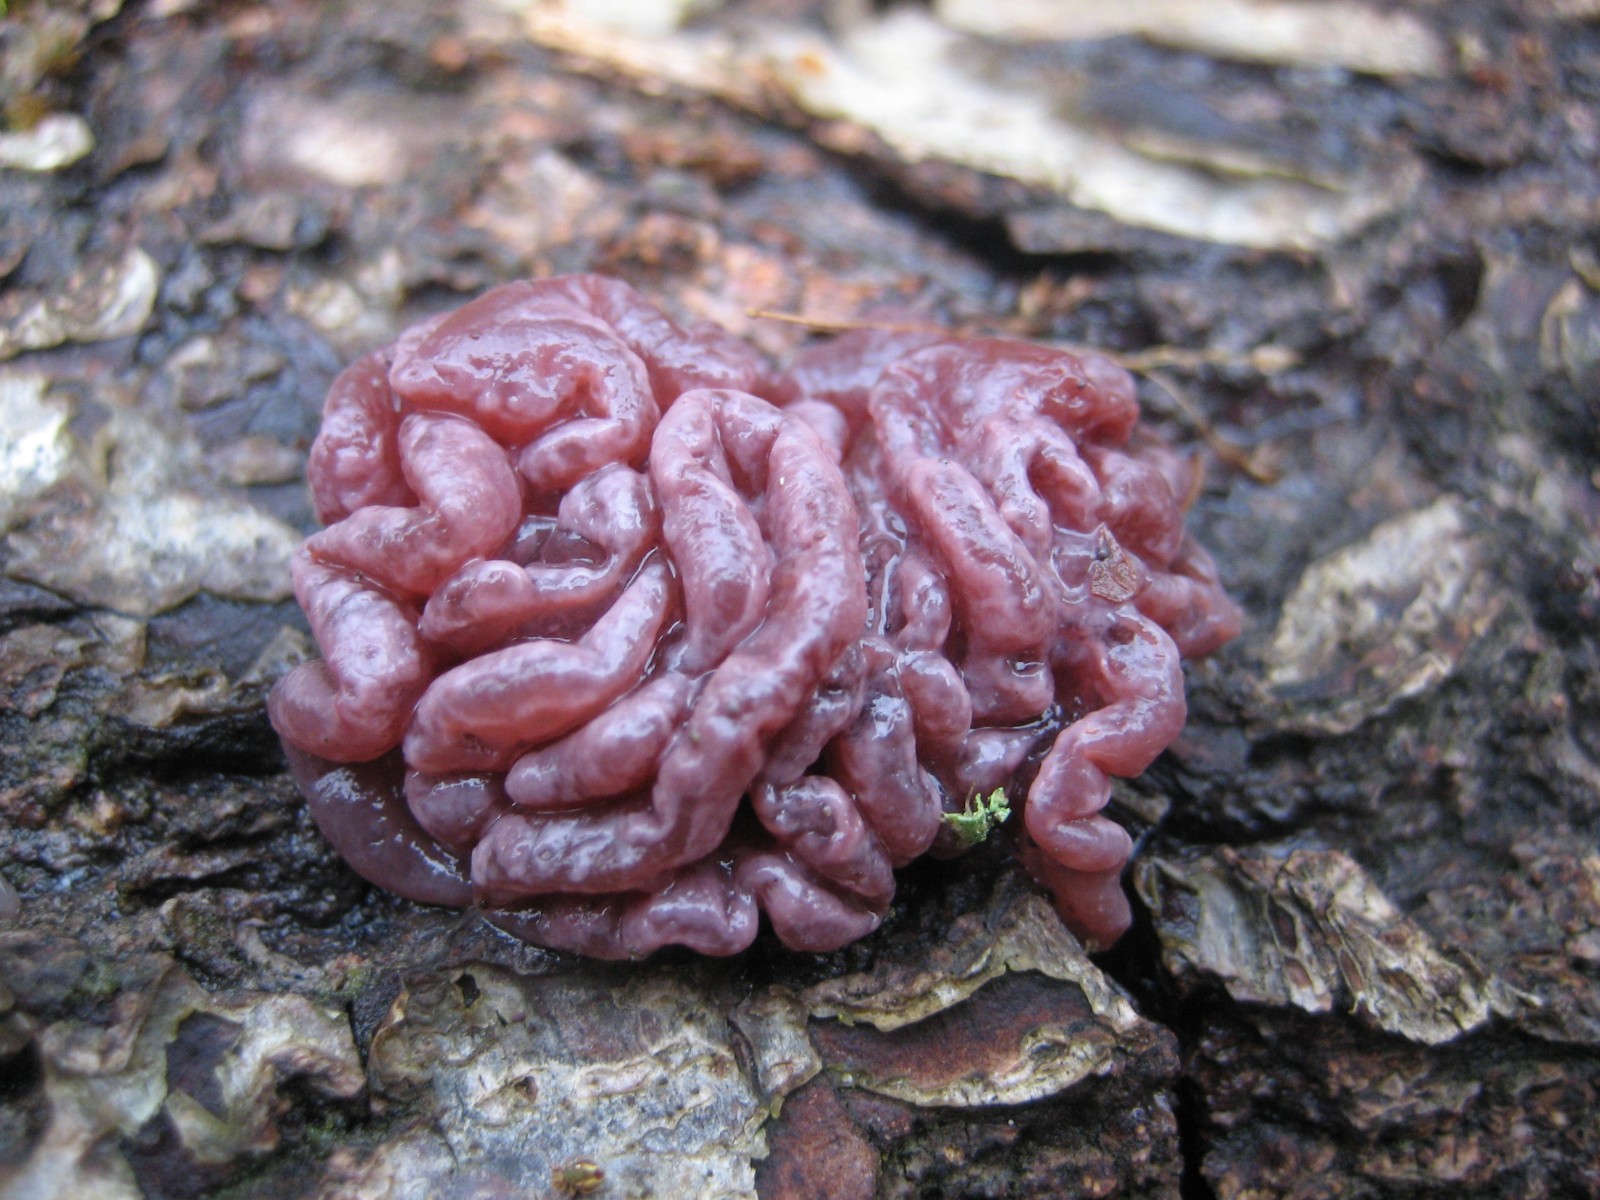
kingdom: Fungi
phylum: Ascomycota
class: Leotiomycetes
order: Helotiales
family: Gelatinodiscaceae
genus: Ascocoryne
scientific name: Ascocoryne sarcoides
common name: rødlilla sejskive
